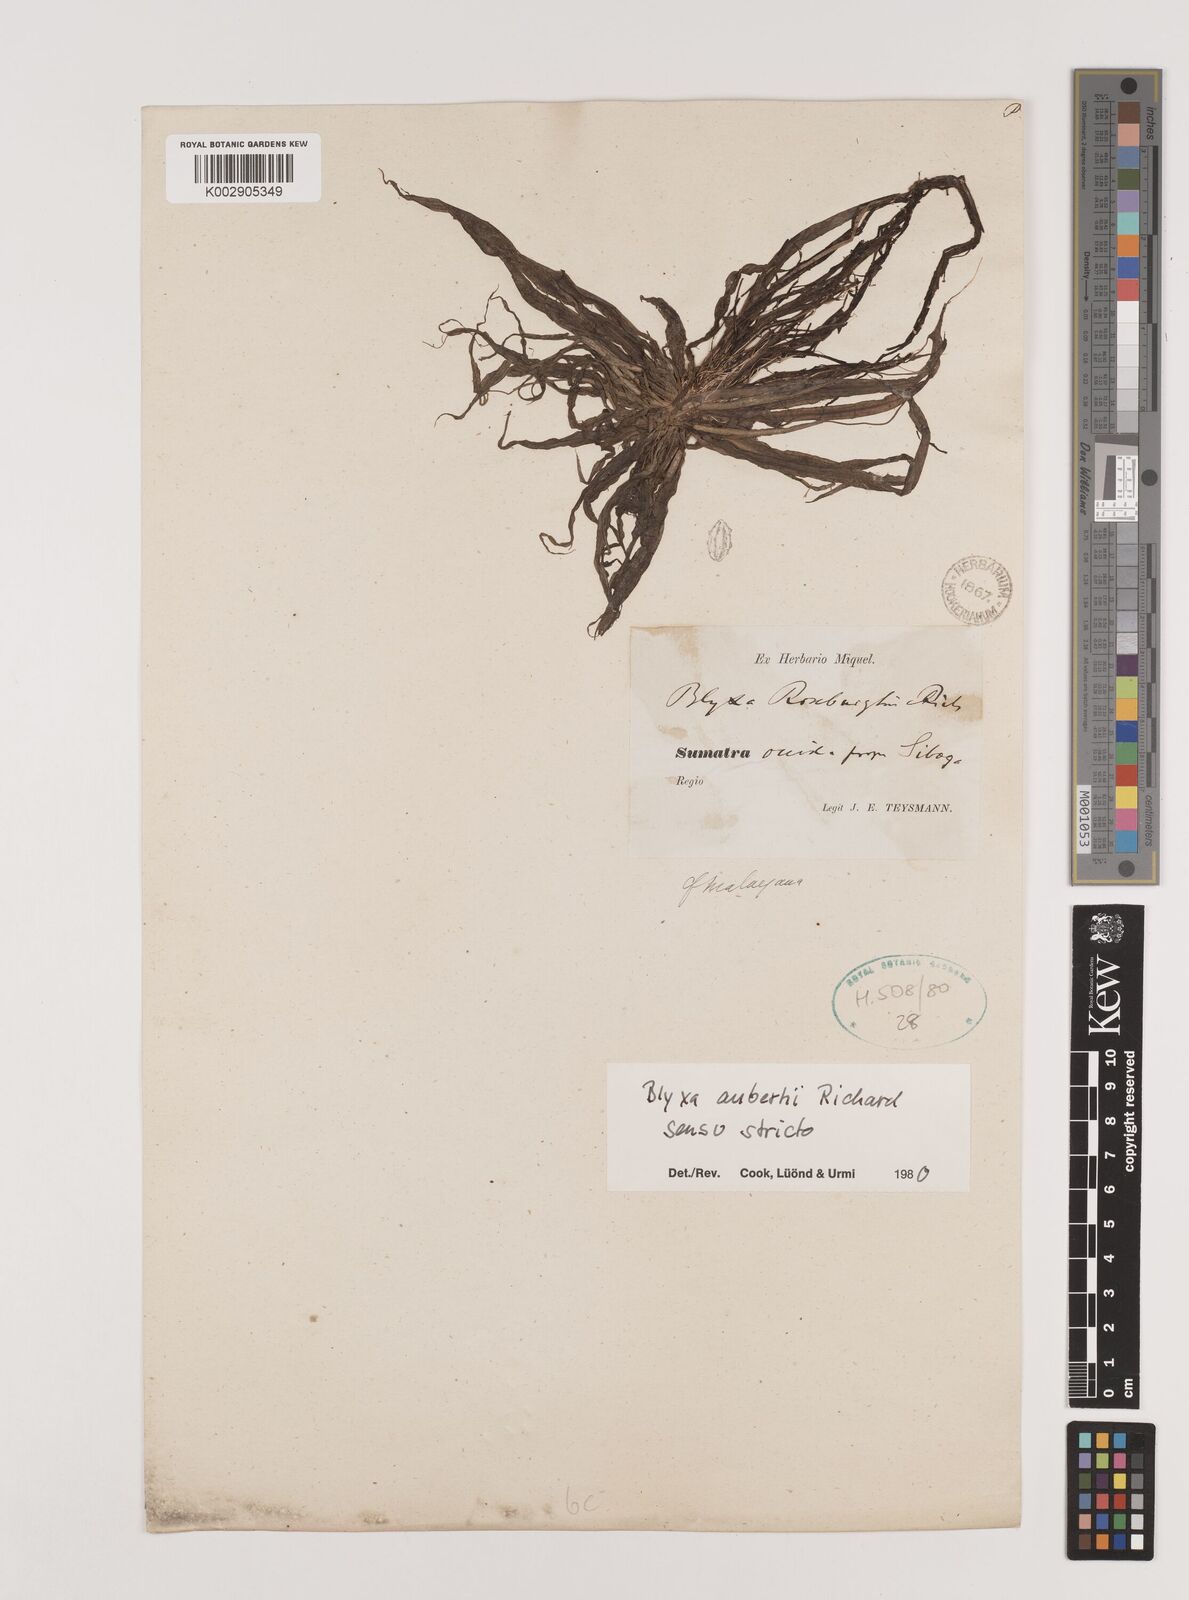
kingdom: Plantae
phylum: Tracheophyta
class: Liliopsida
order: Alismatales
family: Hydrocharitaceae
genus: Blyxa
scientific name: Blyxa aubertii
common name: Roundfruit blyxa
